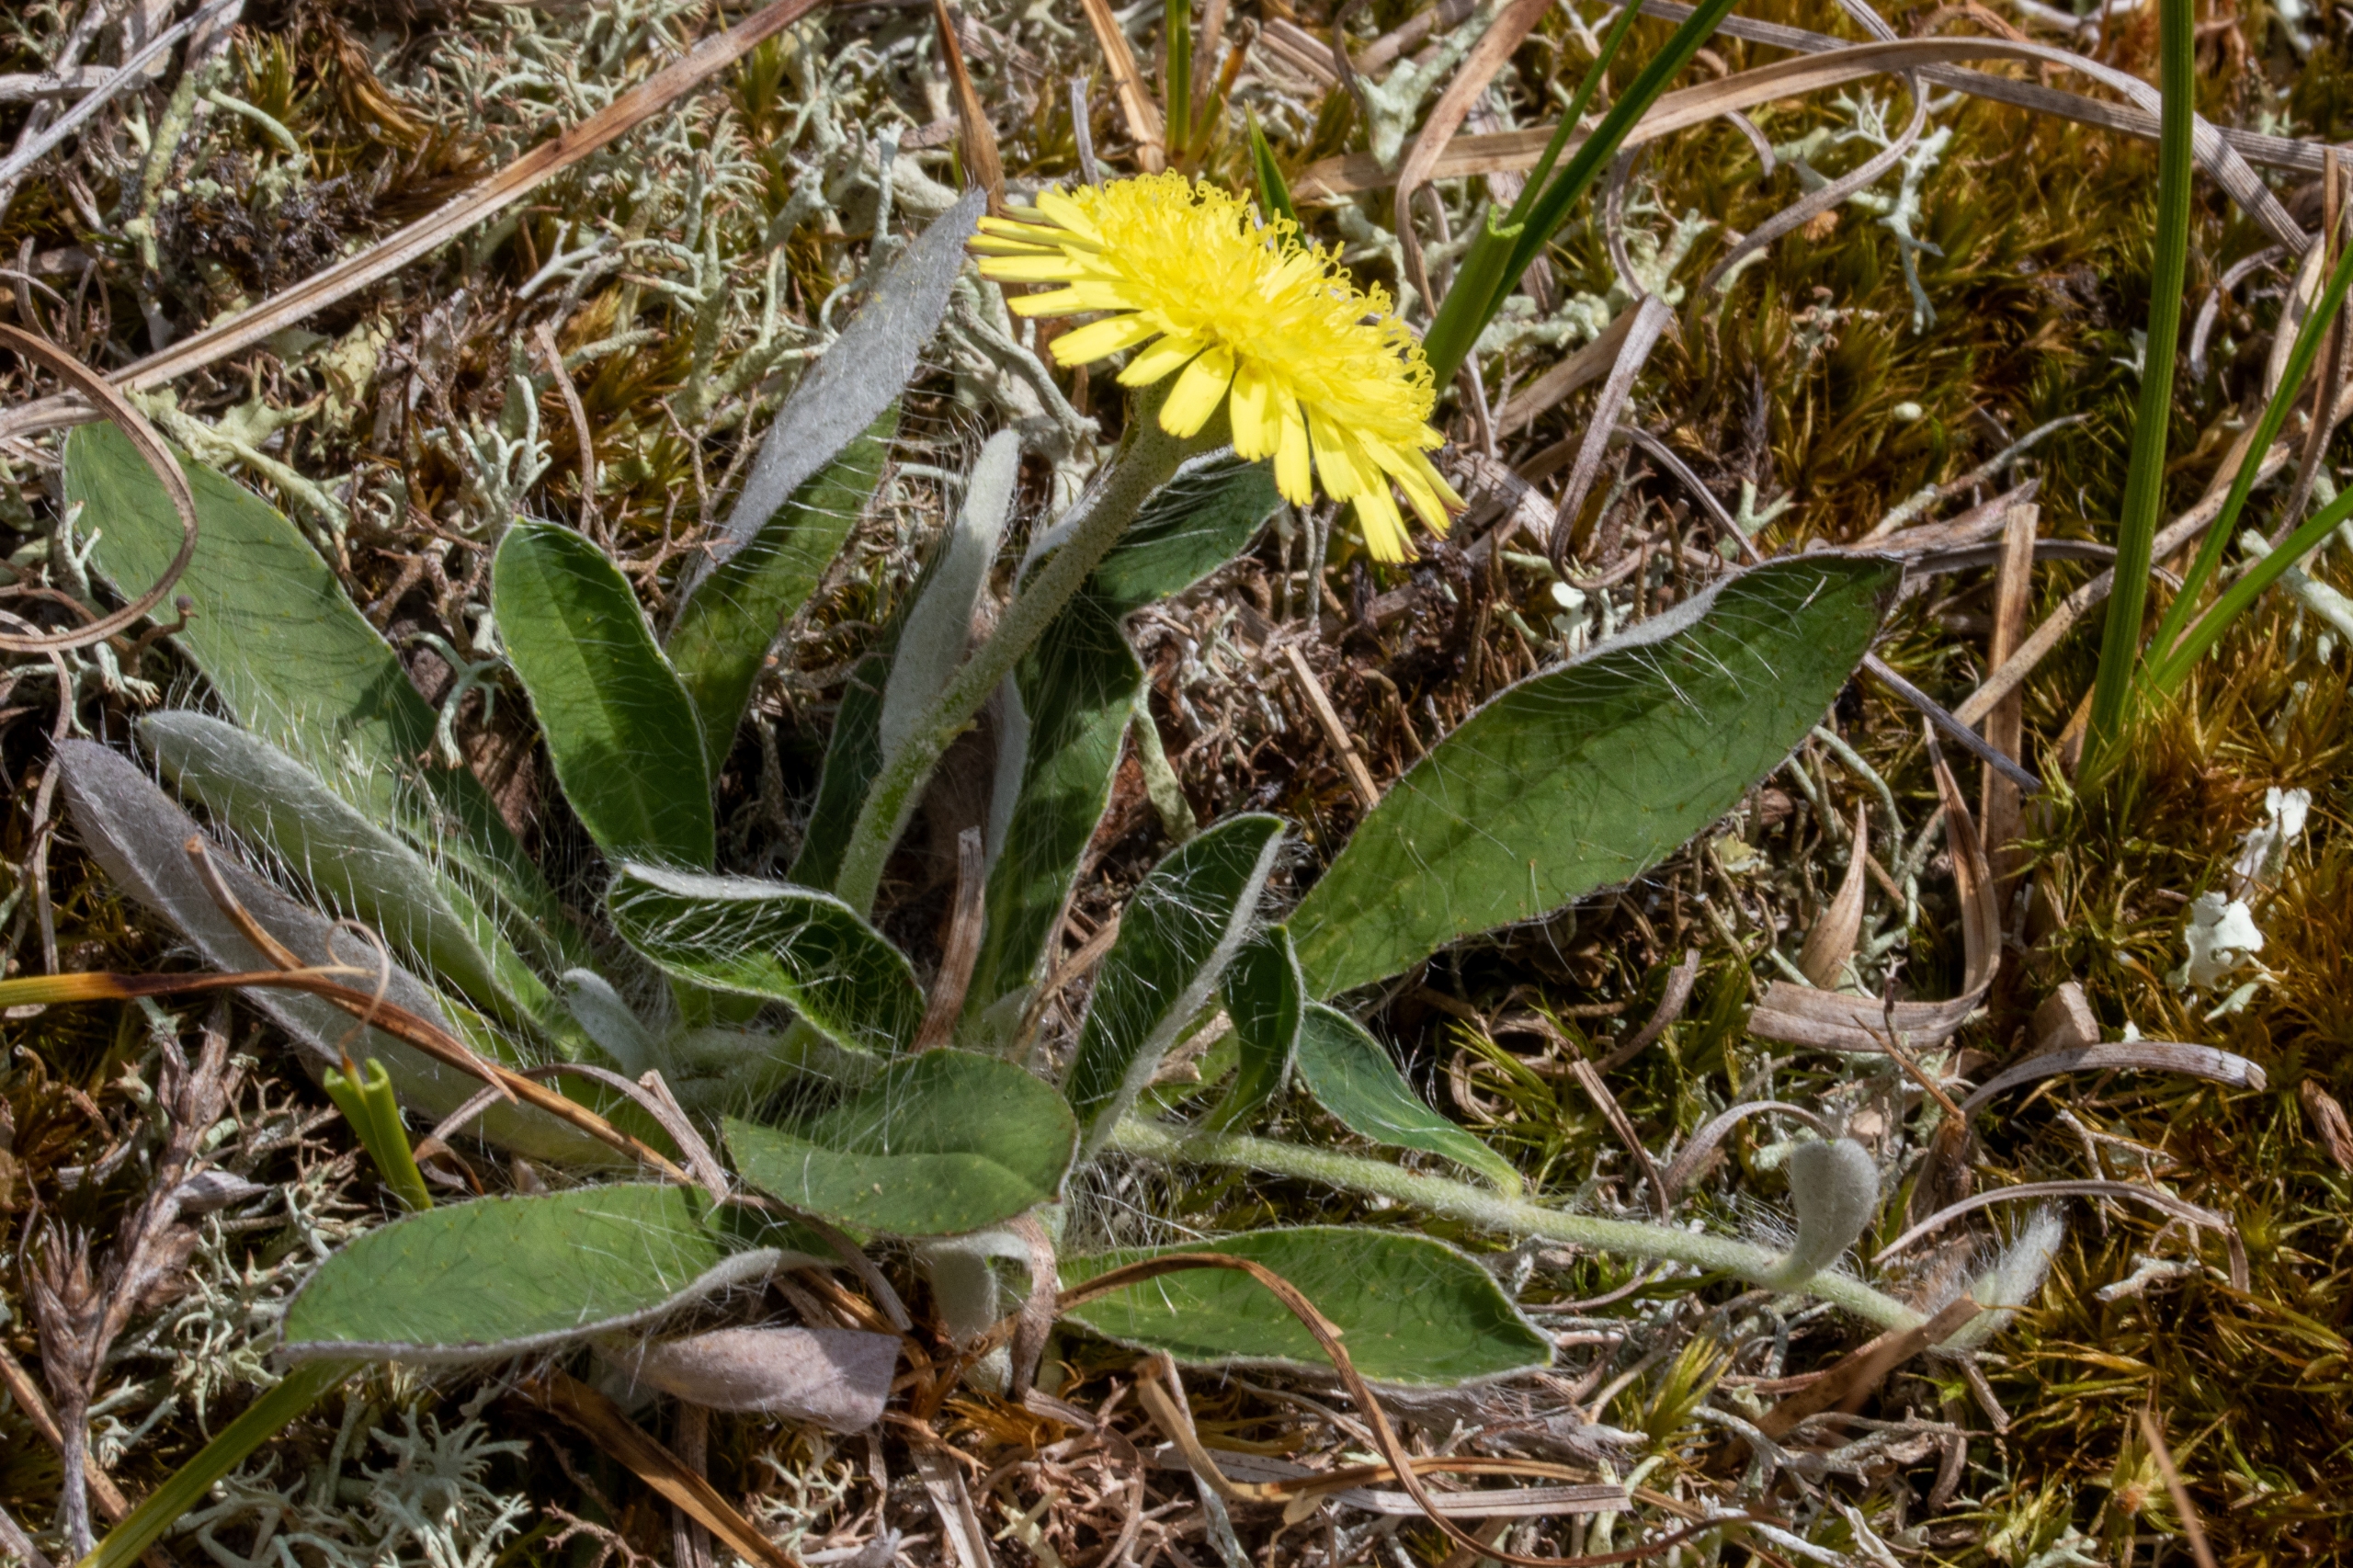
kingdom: Plantae
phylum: Tracheophyta
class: Magnoliopsida
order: Asterales
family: Asteraceae
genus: Pilosella
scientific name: Pilosella officinarum
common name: Håret høgeurt
